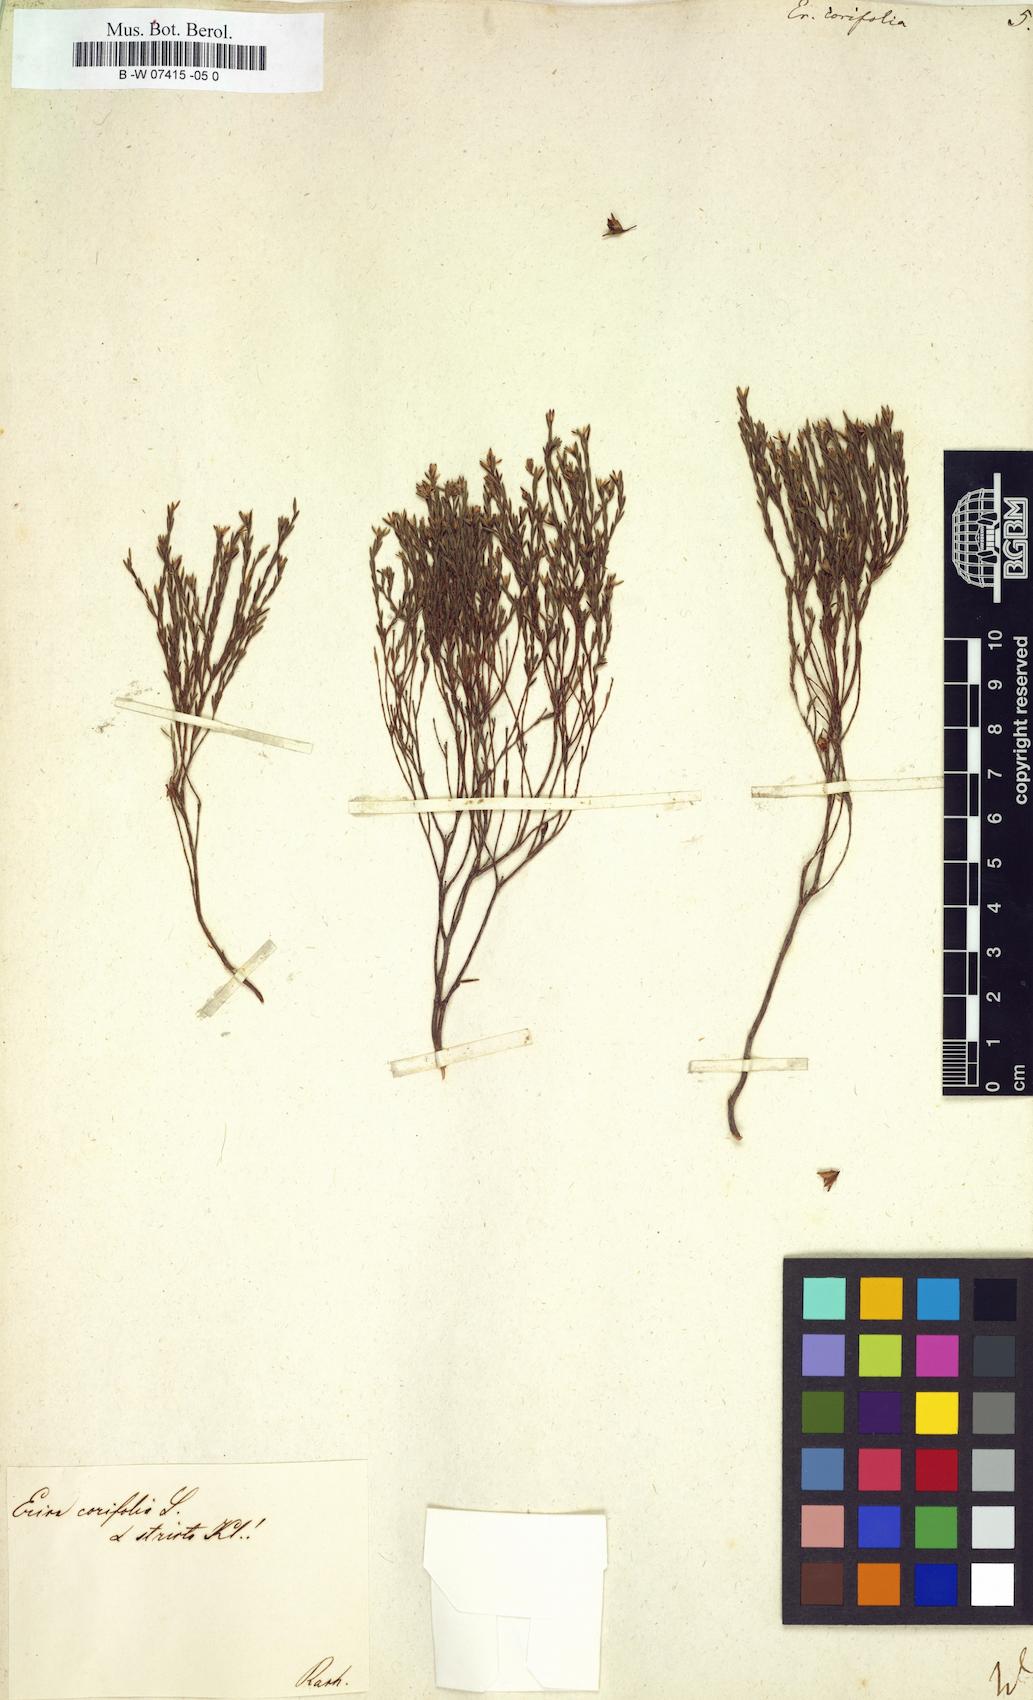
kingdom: Plantae
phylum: Tracheophyta
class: Magnoliopsida
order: Ericales
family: Ericaceae
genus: Erica
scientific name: Erica corifolia
